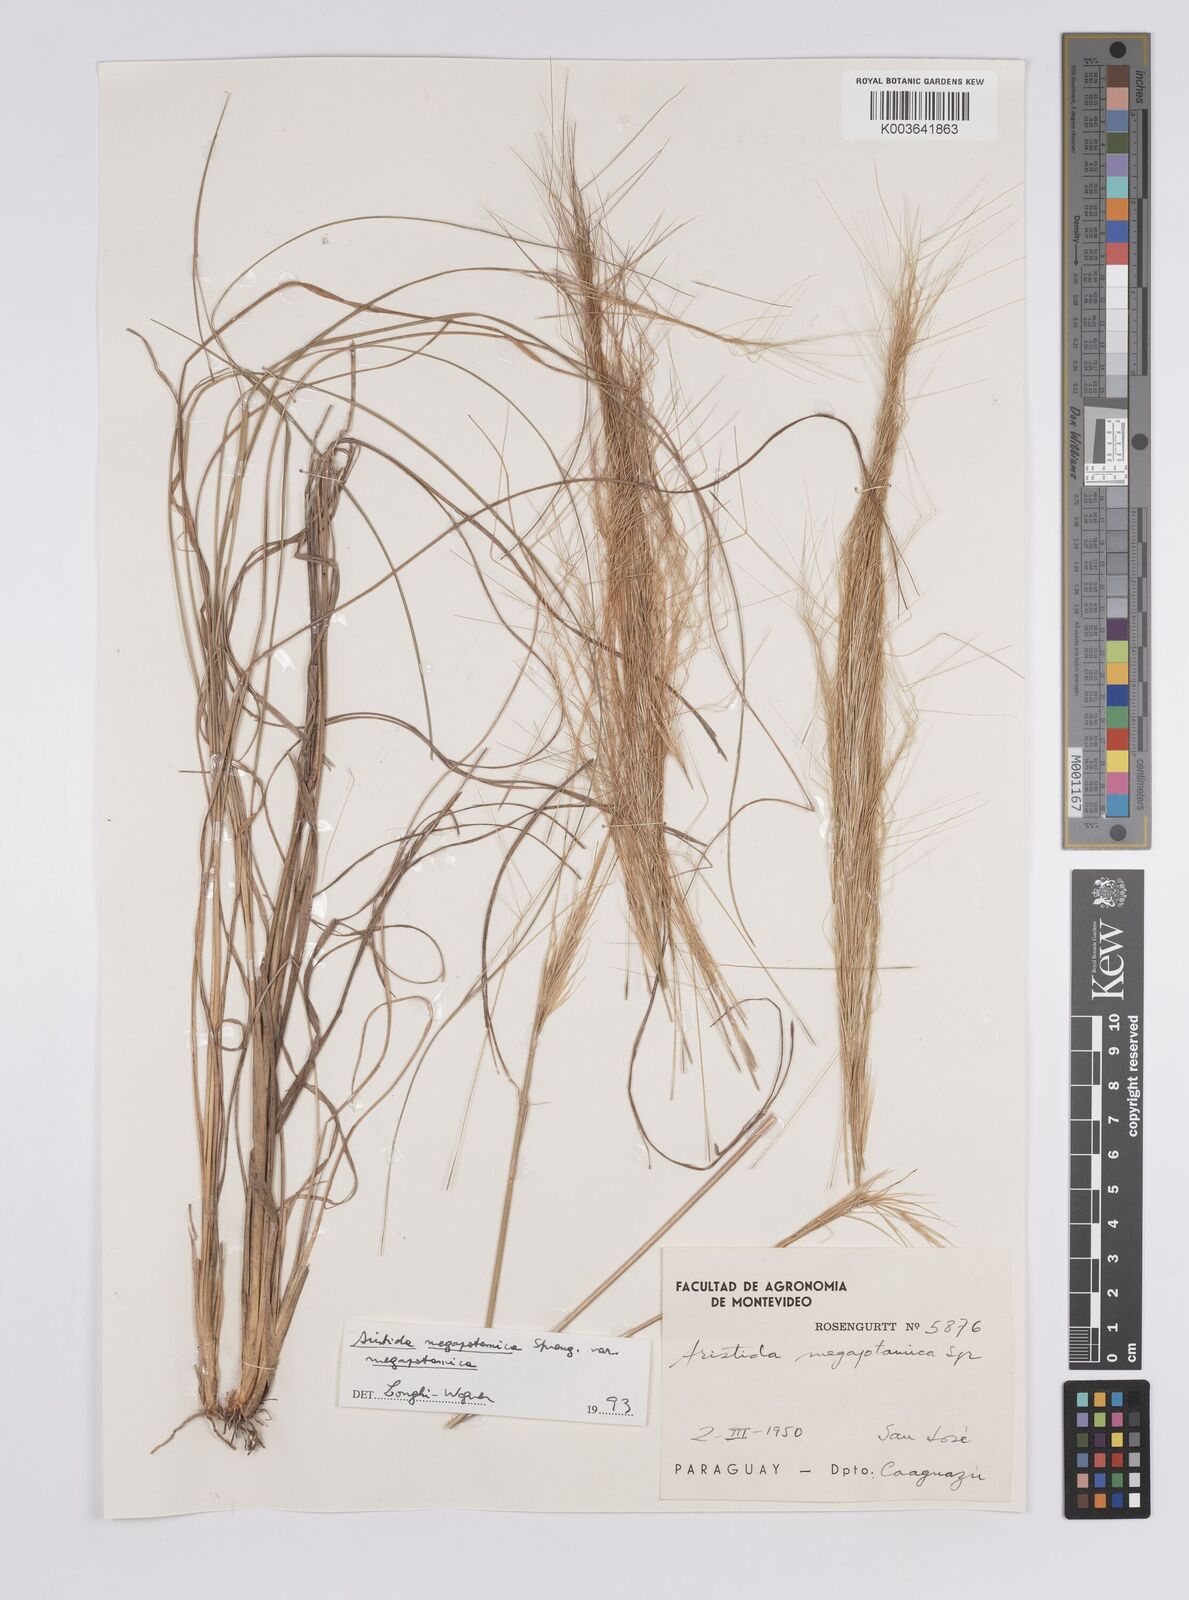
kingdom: Plantae
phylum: Tracheophyta
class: Liliopsida
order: Poales
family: Poaceae
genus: Aristida
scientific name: Aristida megapotamica
